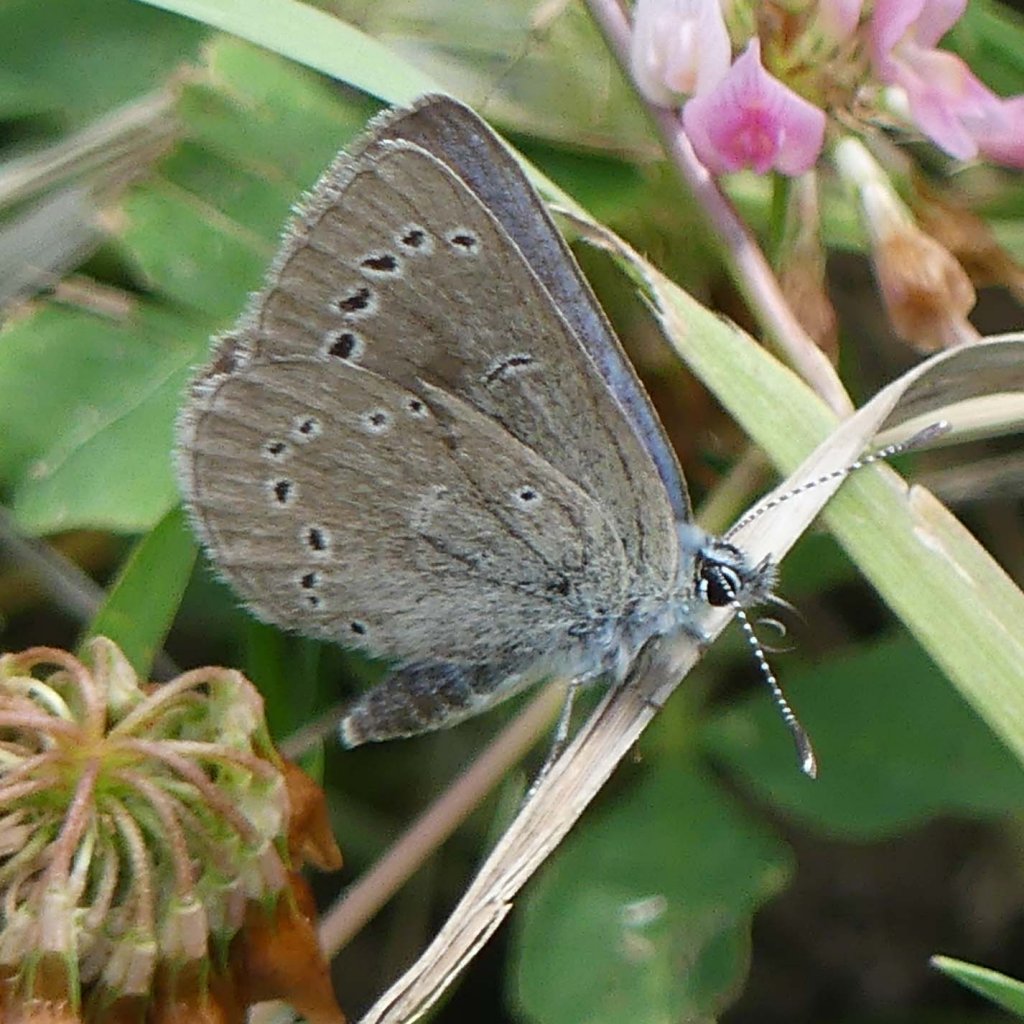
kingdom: Animalia
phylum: Arthropoda
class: Insecta
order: Lepidoptera
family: Lycaenidae
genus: Glaucopsyche
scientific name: Glaucopsyche lygdamus
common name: Silvery Blue
